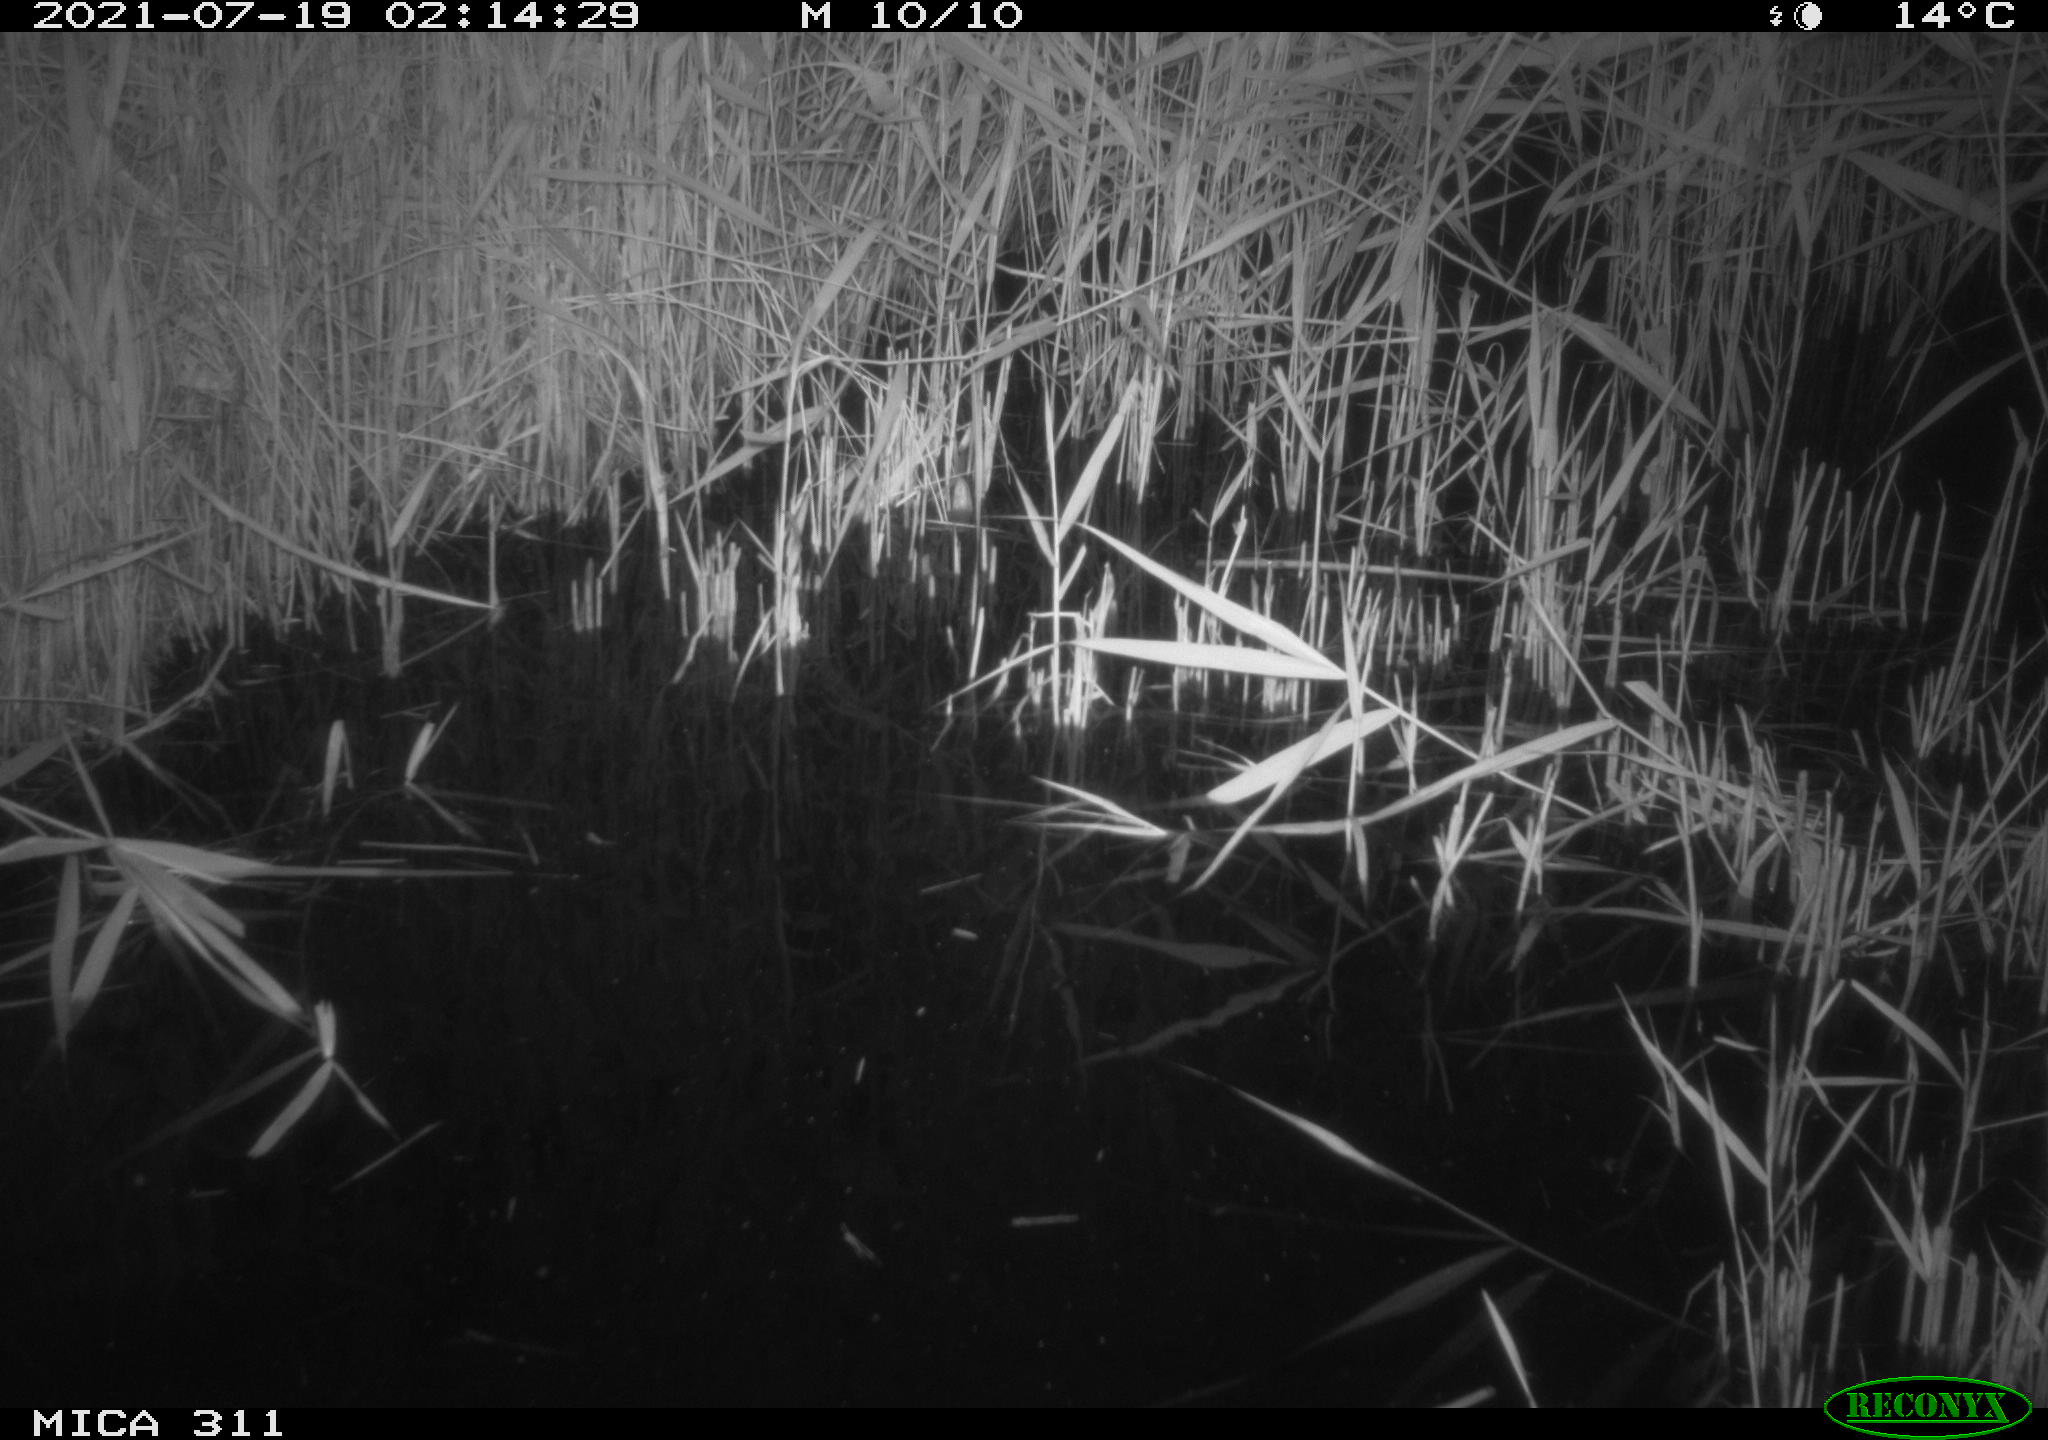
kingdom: Animalia
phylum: Chordata
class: Mammalia
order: Rodentia
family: Muridae
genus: Rattus
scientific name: Rattus norvegicus
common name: Brown rat
